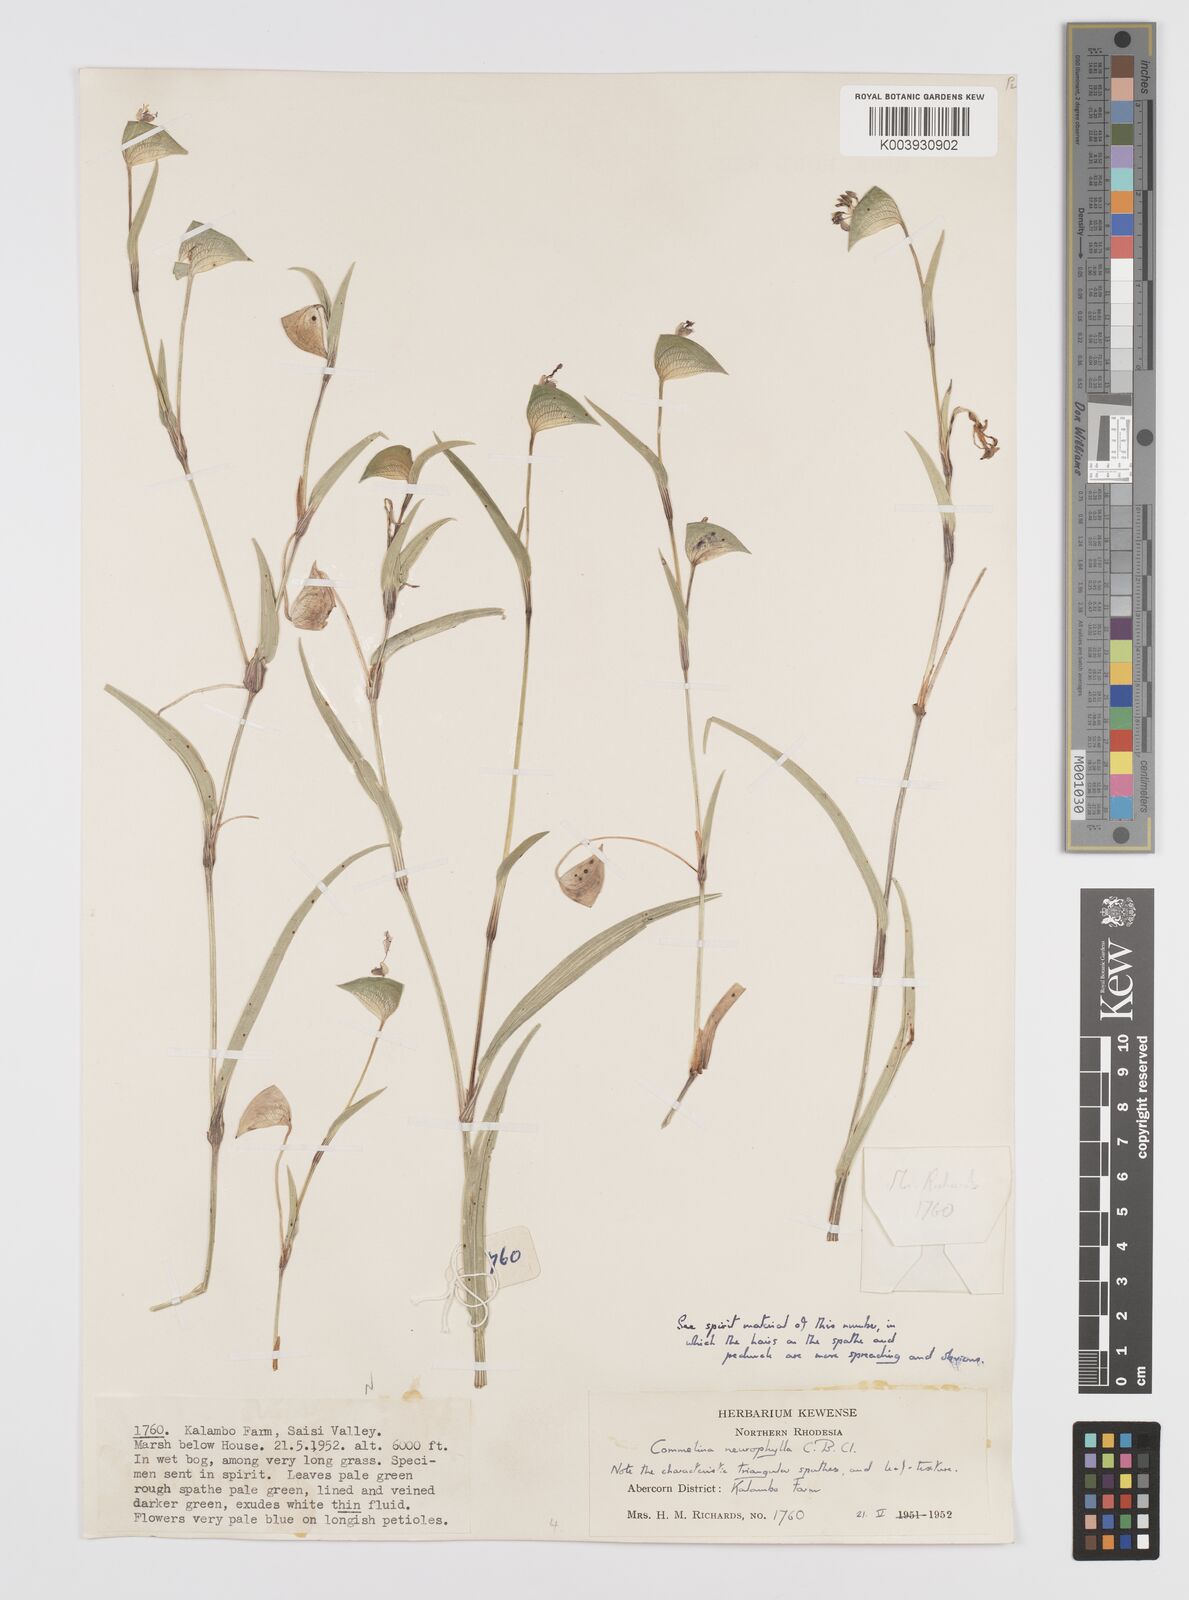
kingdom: Plantae
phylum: Tracheophyta
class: Liliopsida
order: Commelinales
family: Commelinaceae
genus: Commelina
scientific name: Commelina neurophylla
